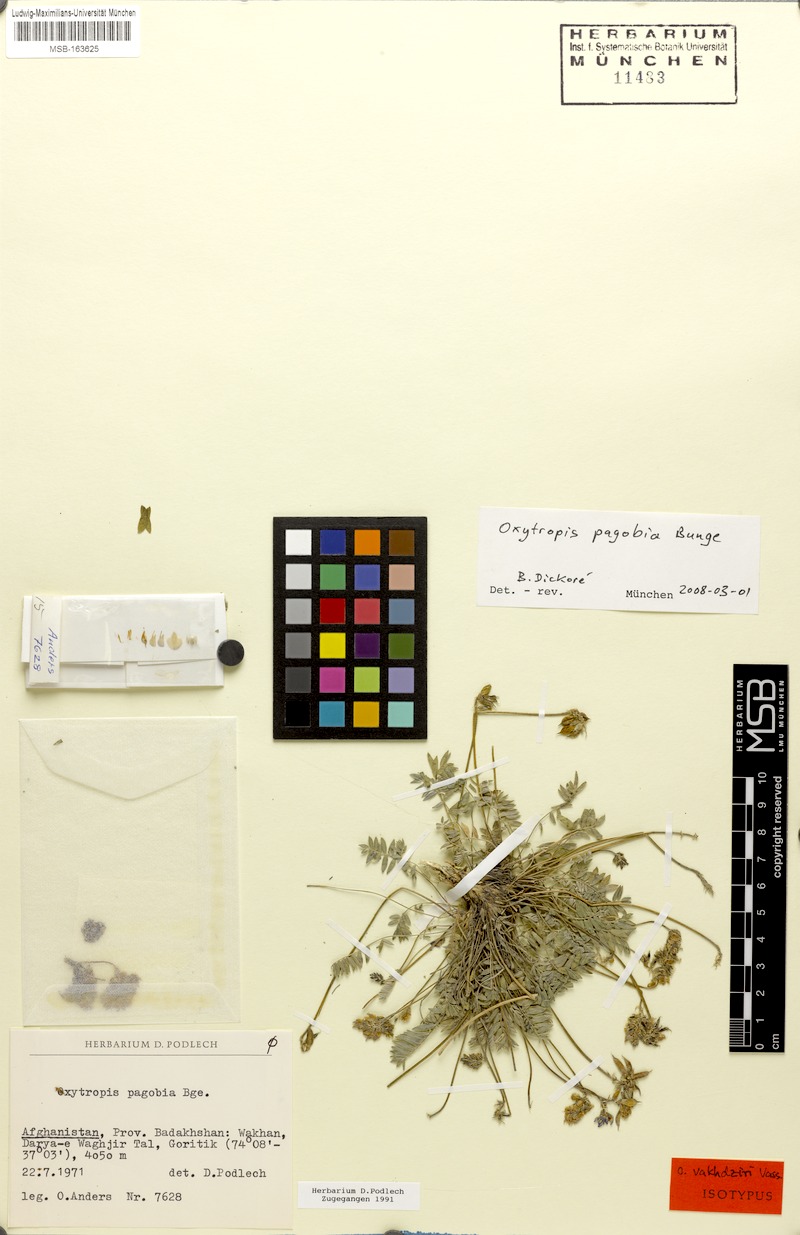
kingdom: Plantae
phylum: Tracheophyta
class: Magnoliopsida
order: Fabales
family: Fabaceae
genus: Oxytropis
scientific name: Oxytropis globiflora
